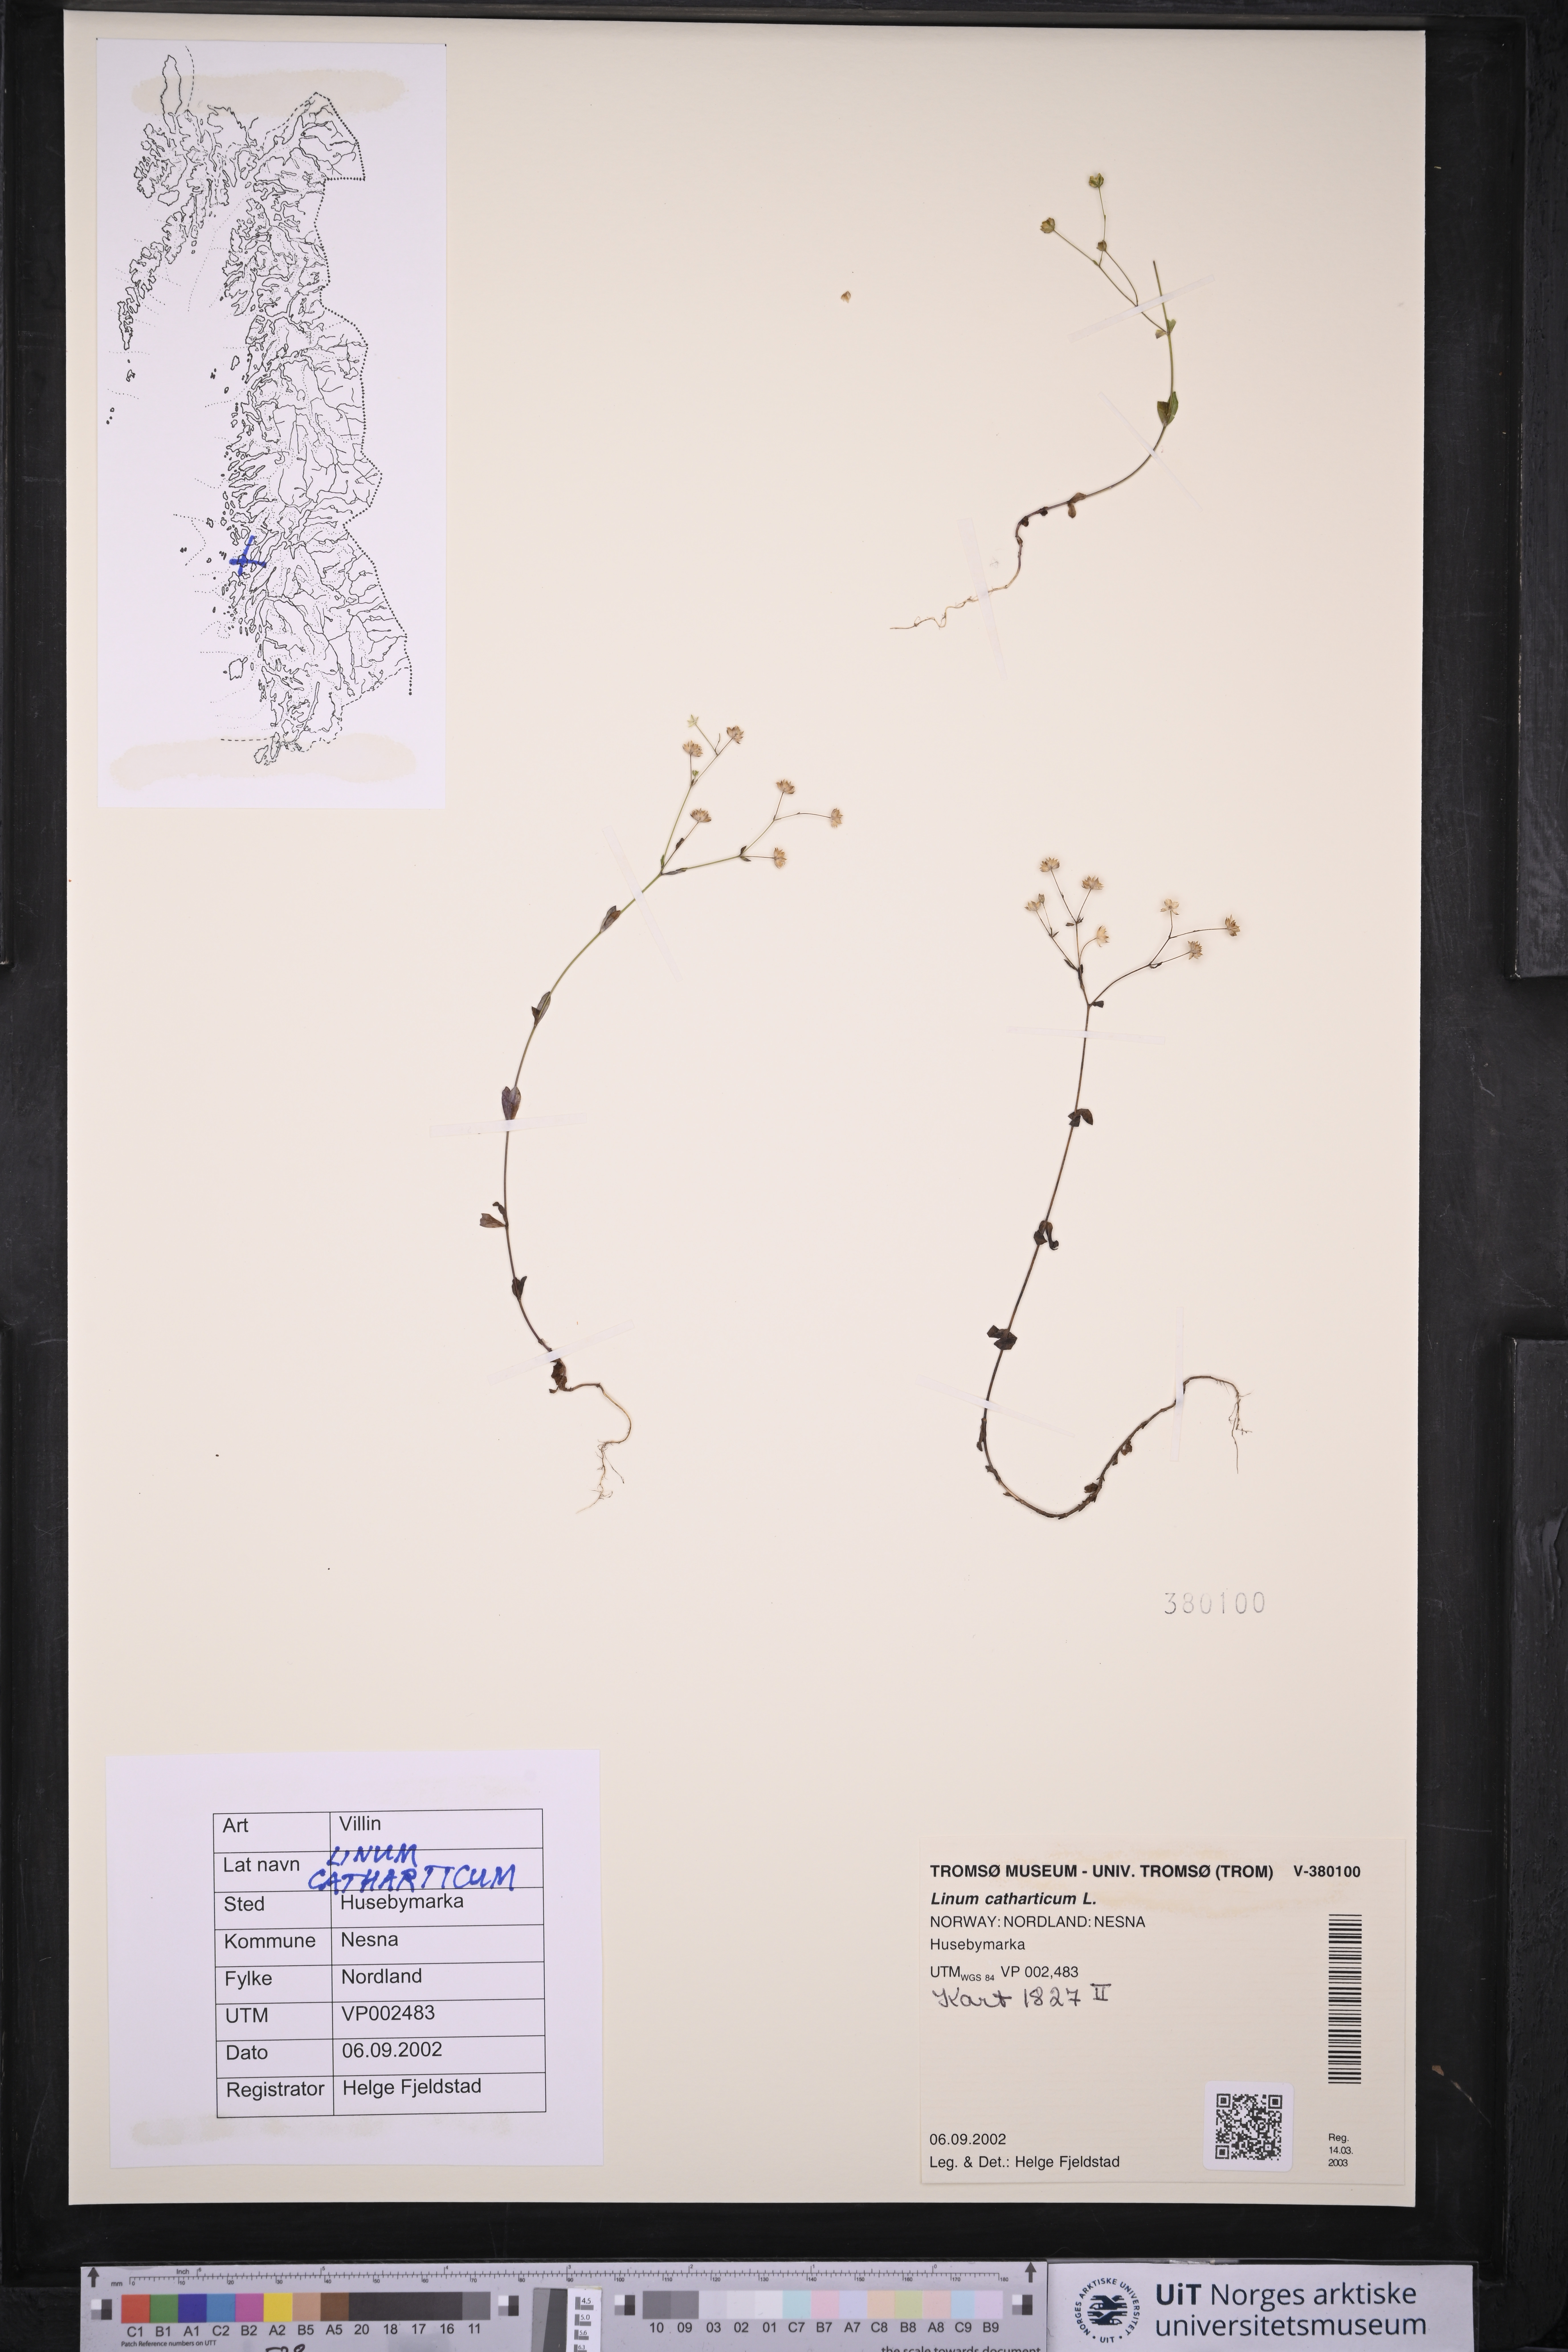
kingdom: Plantae
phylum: Tracheophyta
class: Magnoliopsida
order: Malpighiales
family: Linaceae
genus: Linum
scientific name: Linum catharticum
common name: Fairy flax
